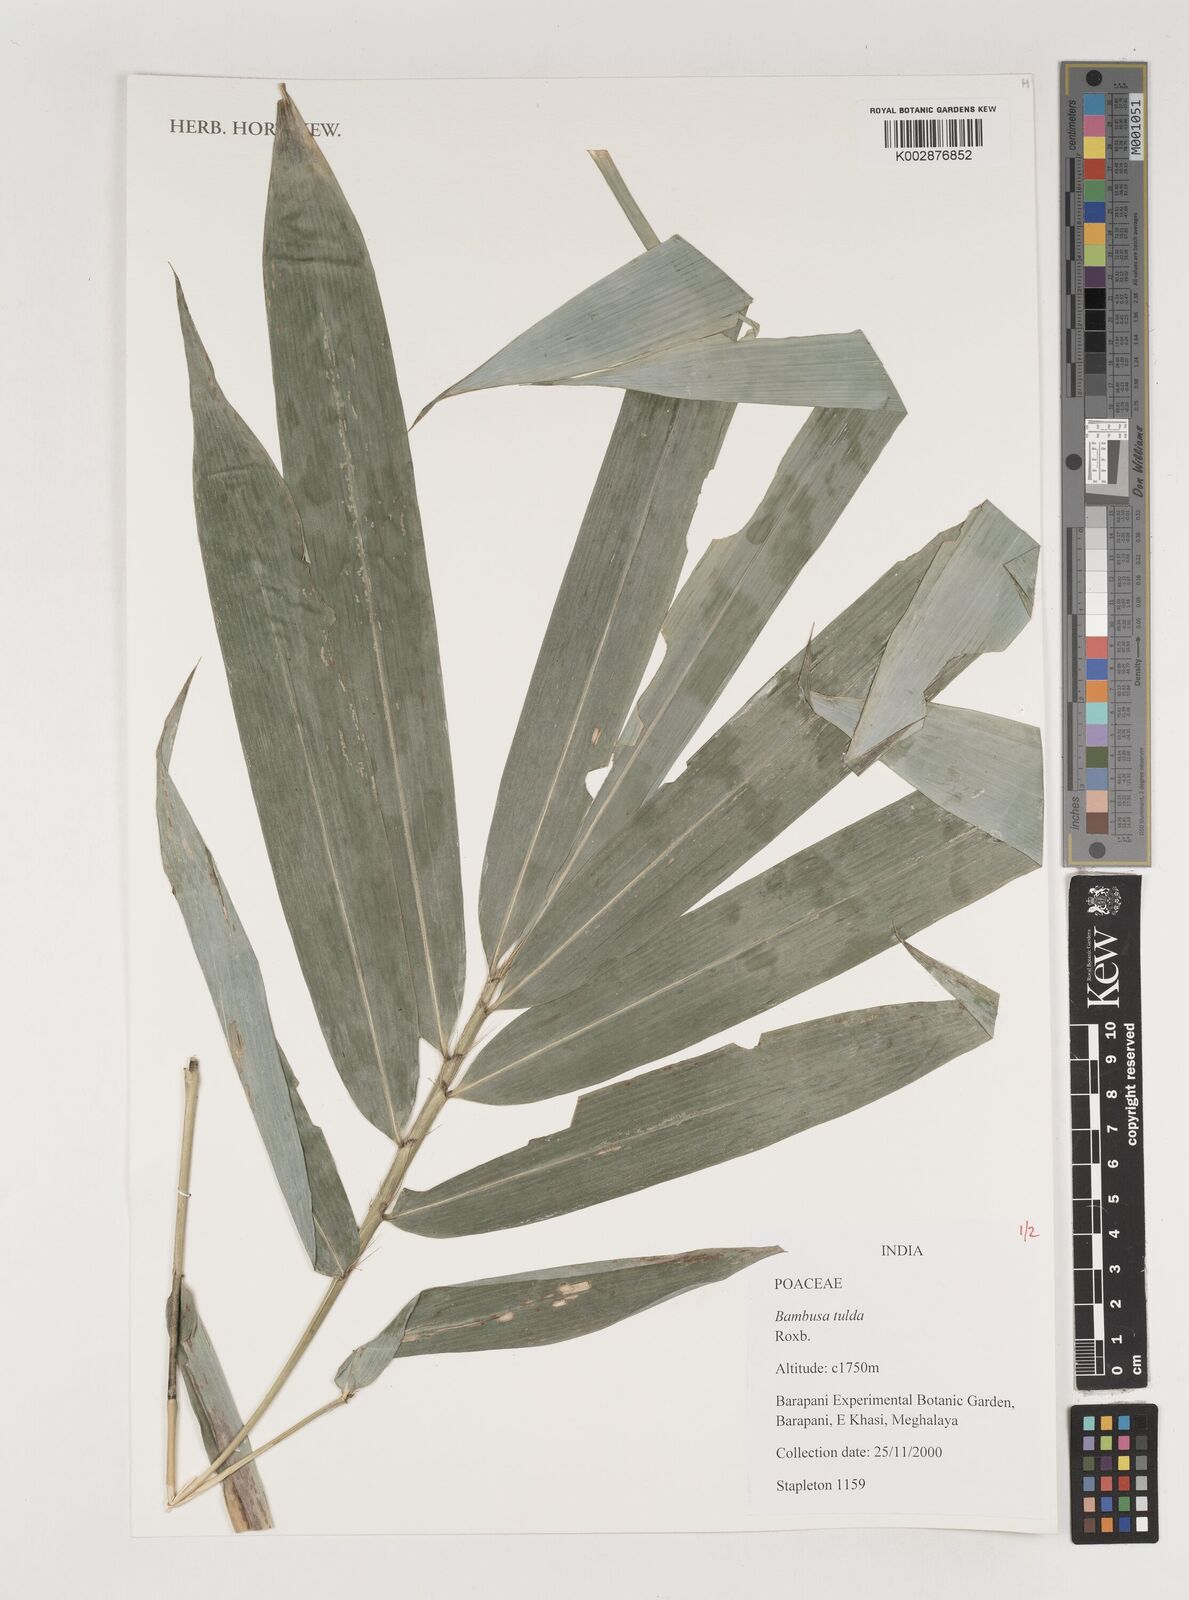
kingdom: Plantae
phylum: Tracheophyta
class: Liliopsida
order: Poales
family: Poaceae
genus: Bambusa
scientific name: Bambusa tulda
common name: Bengal bamboo
